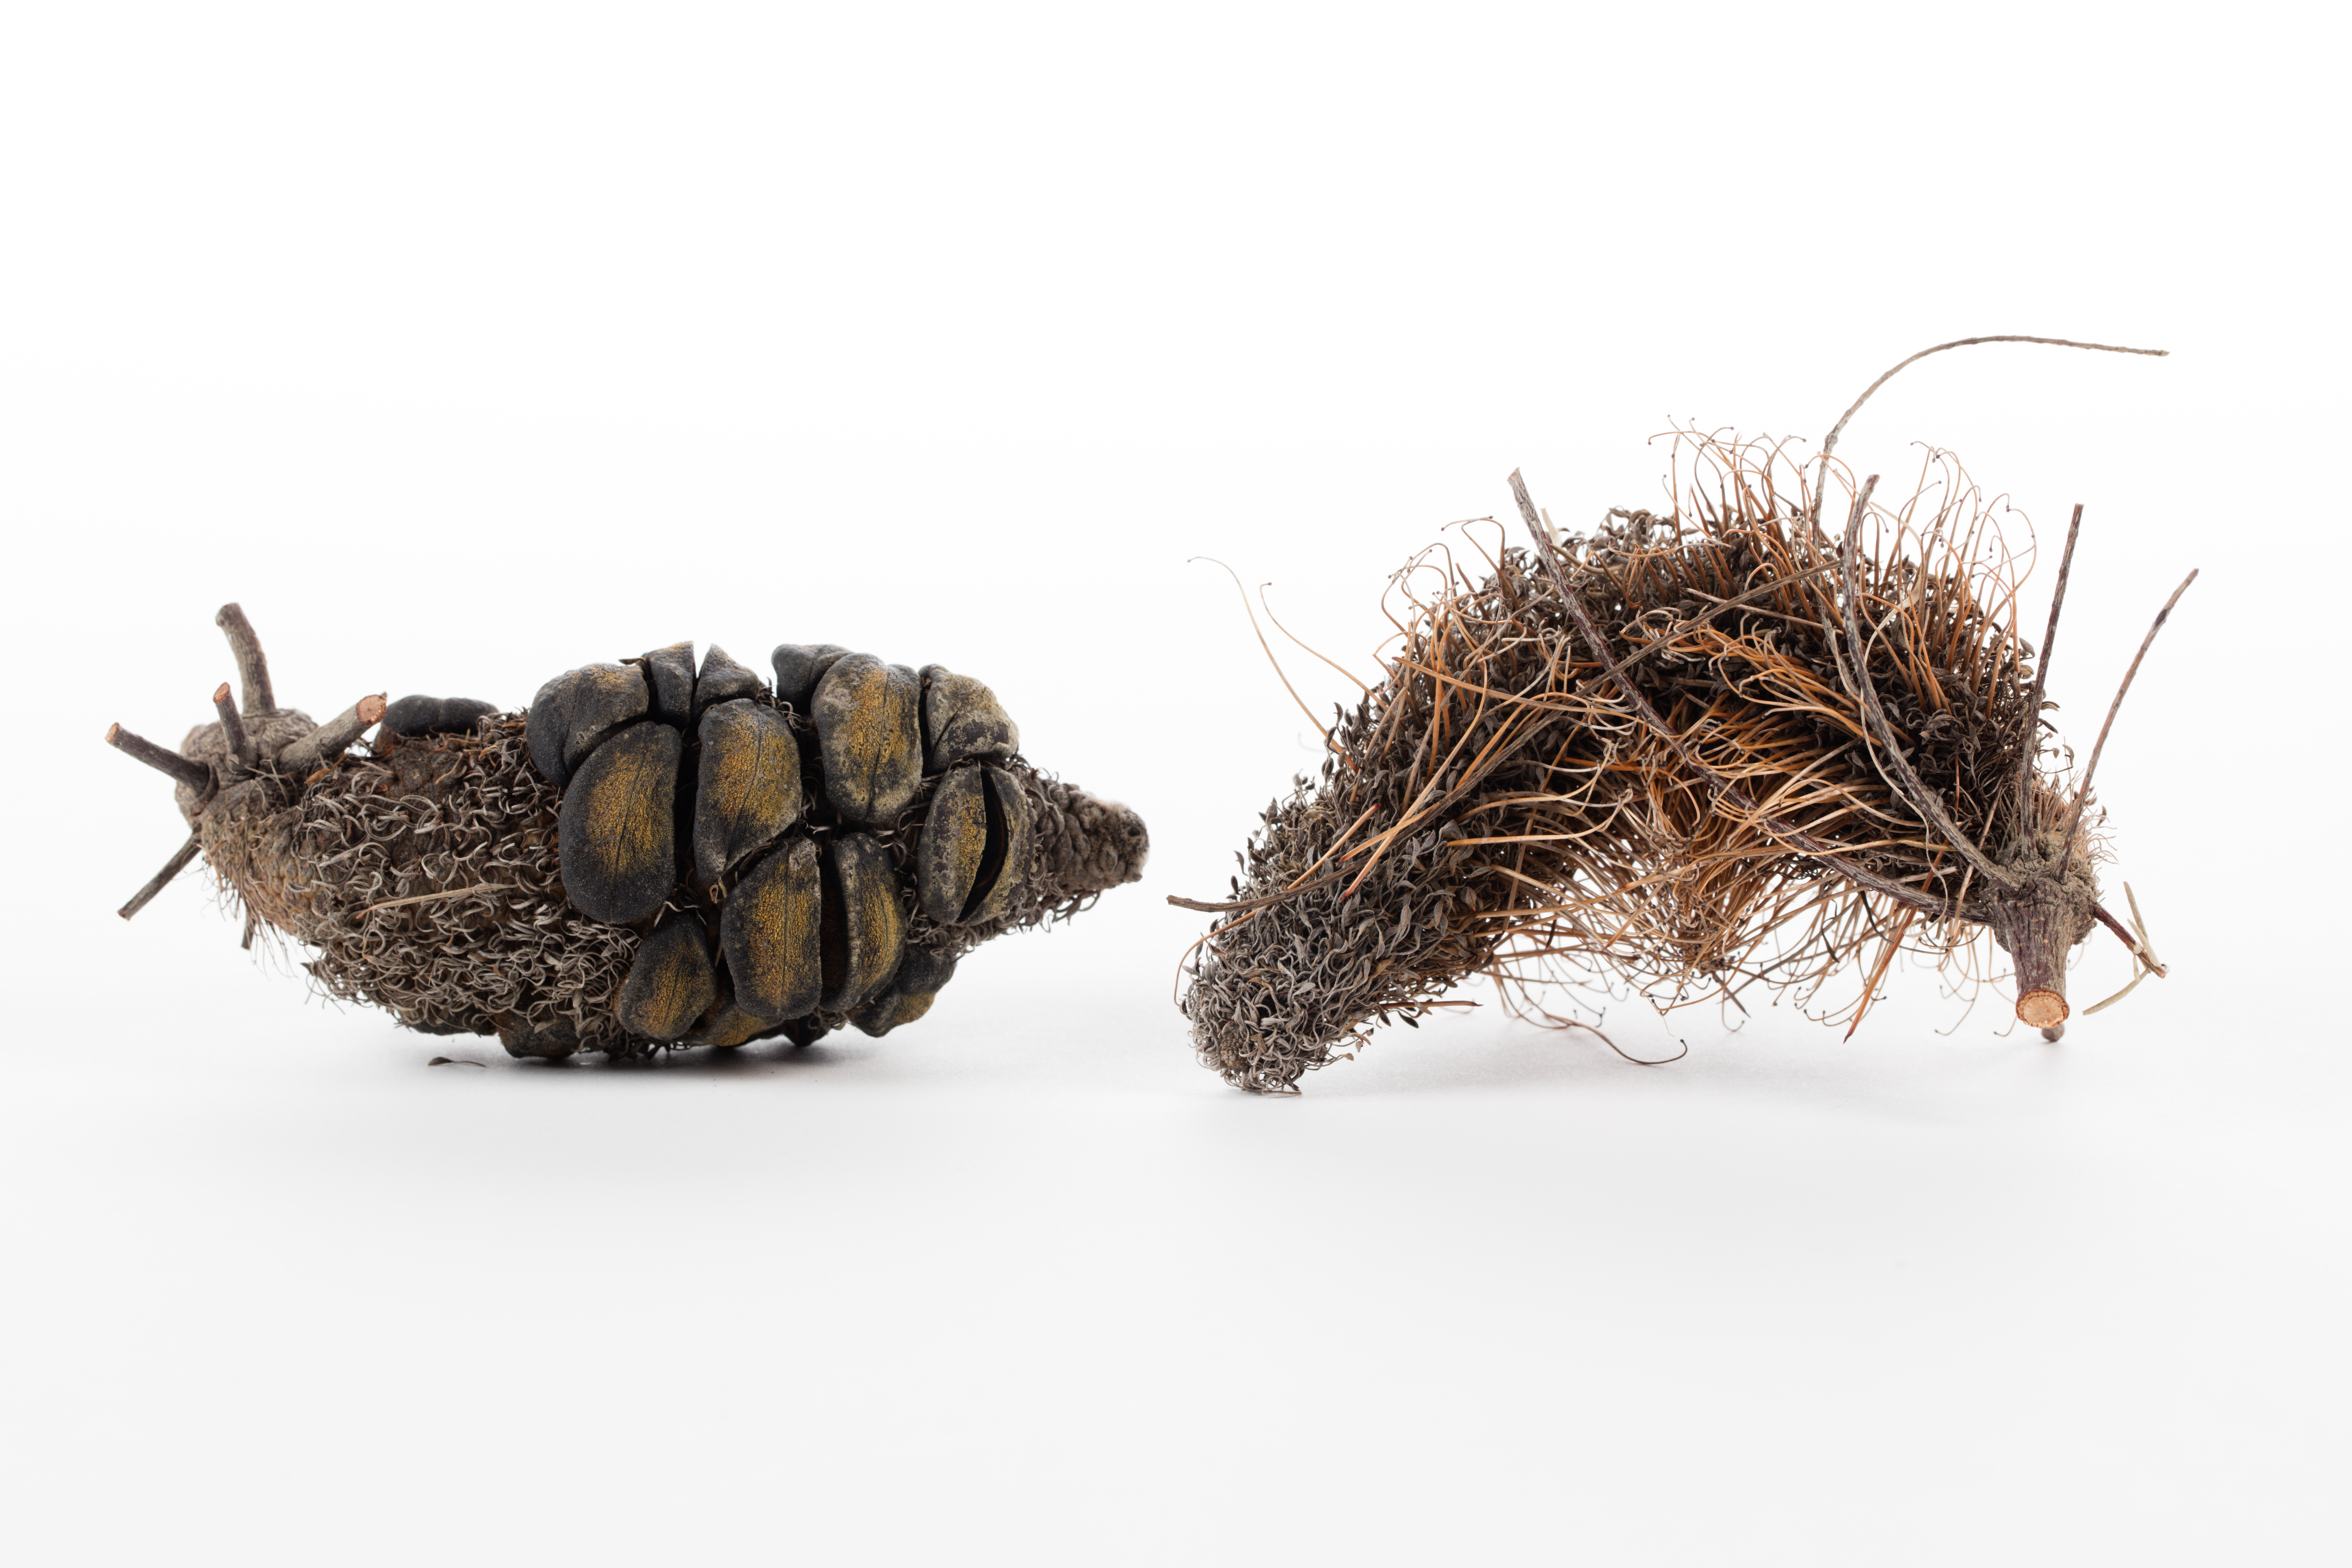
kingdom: Plantae
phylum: Tracheophyta
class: Magnoliopsida
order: Proteales
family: Proteaceae
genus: Banksia
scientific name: Banksia ericifolia
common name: Heath-leaf banksia
